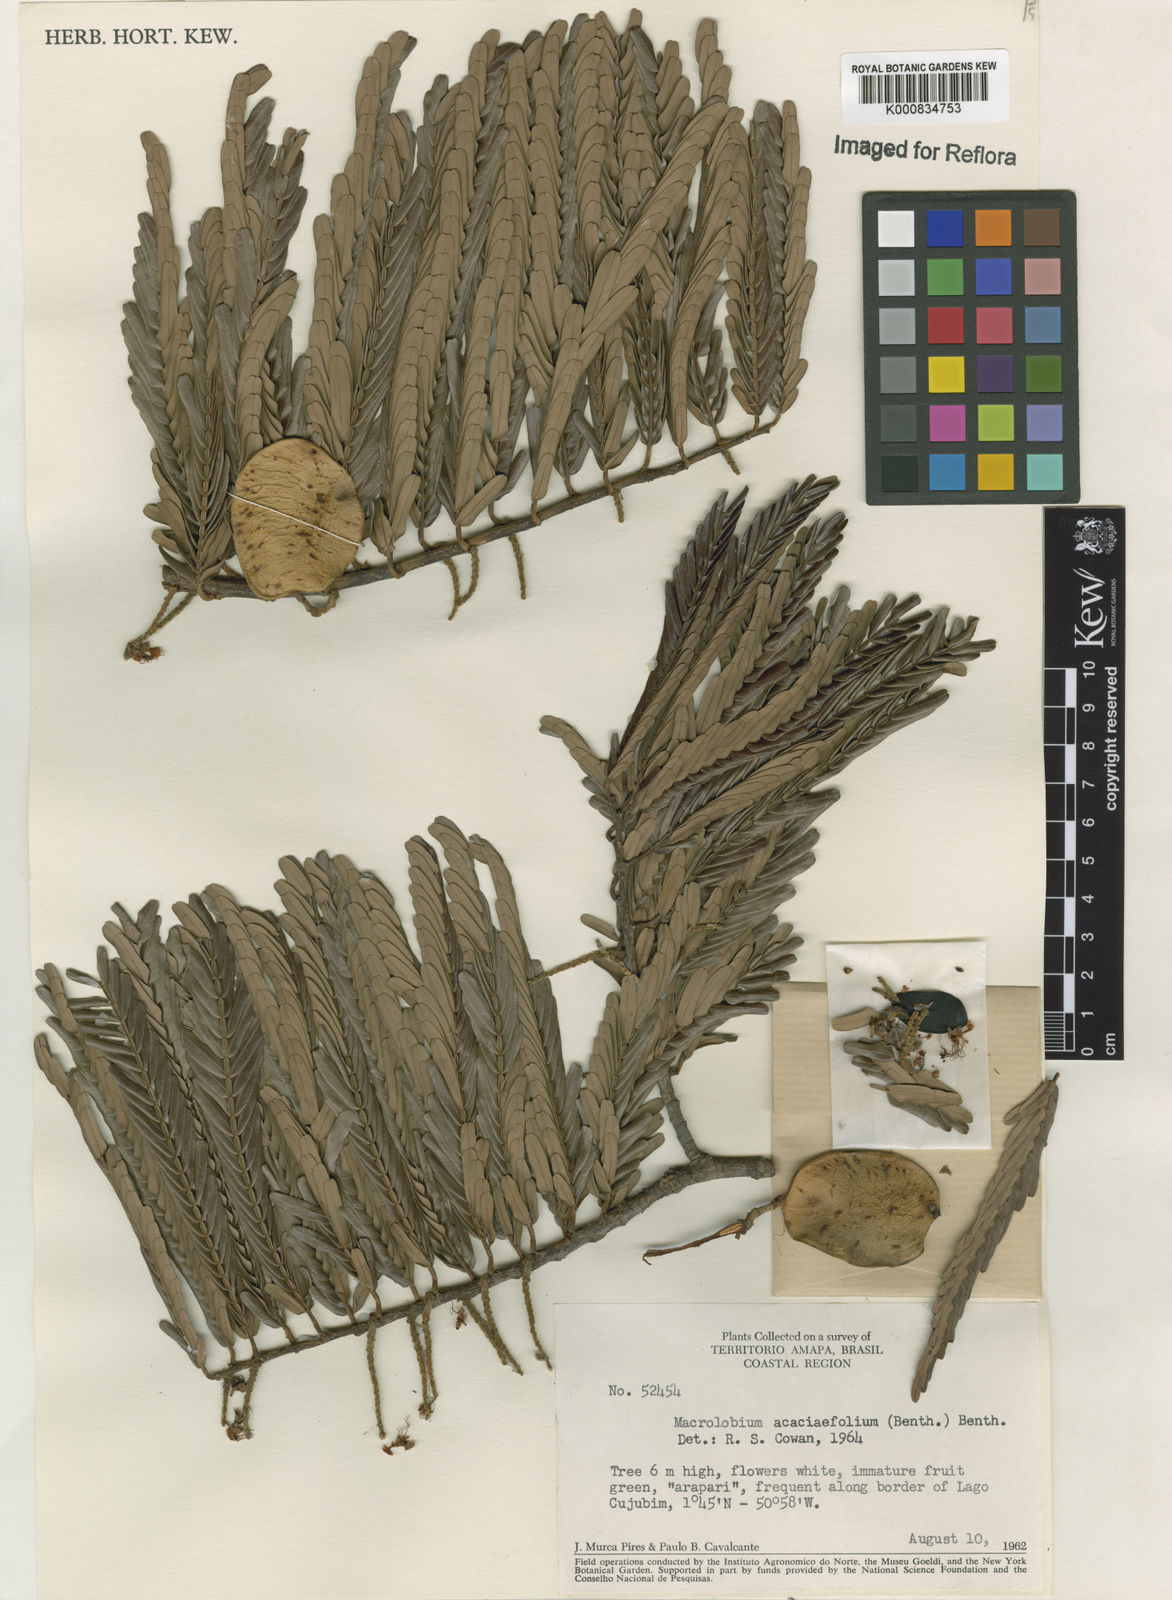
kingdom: Plantae
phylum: Tracheophyta
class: Magnoliopsida
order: Fabales
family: Fabaceae
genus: Macrolobium
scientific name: Macrolobium acaciifolium
